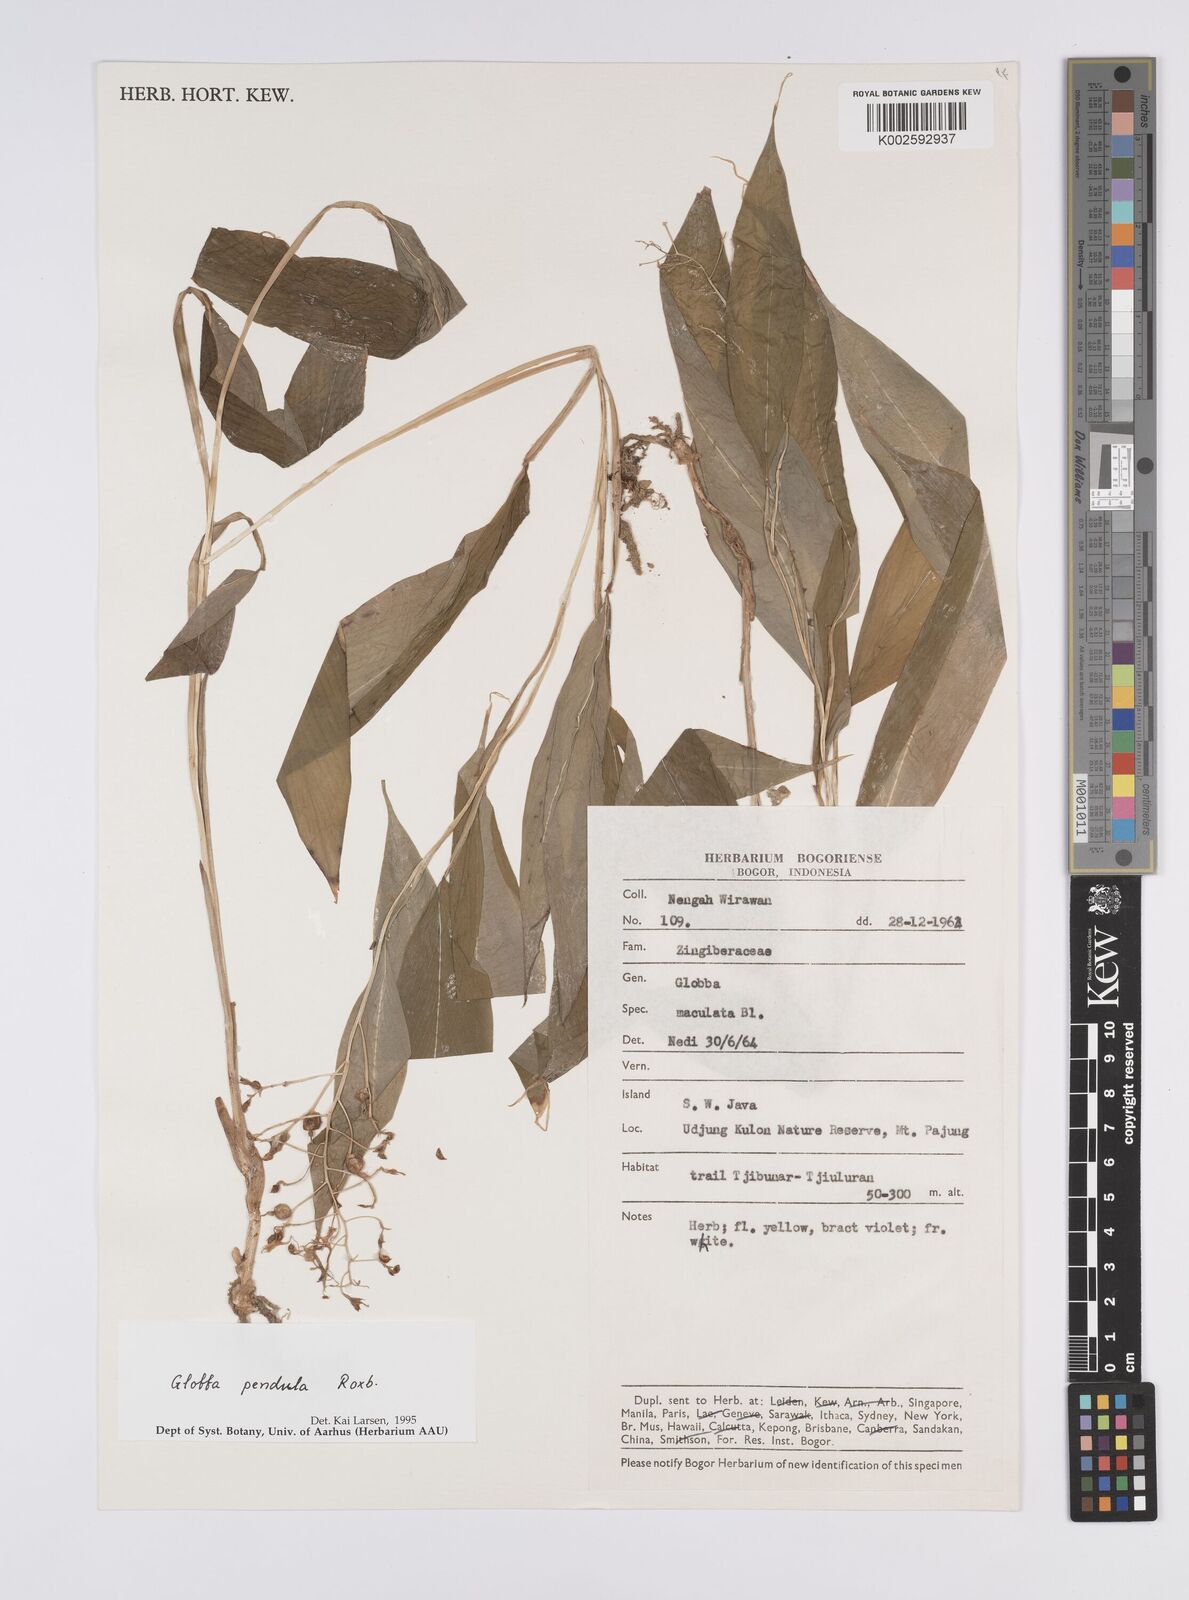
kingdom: Plantae
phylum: Tracheophyta
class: Liliopsida
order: Zingiberales
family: Zingiberaceae
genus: Globba
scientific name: Globba pendula
